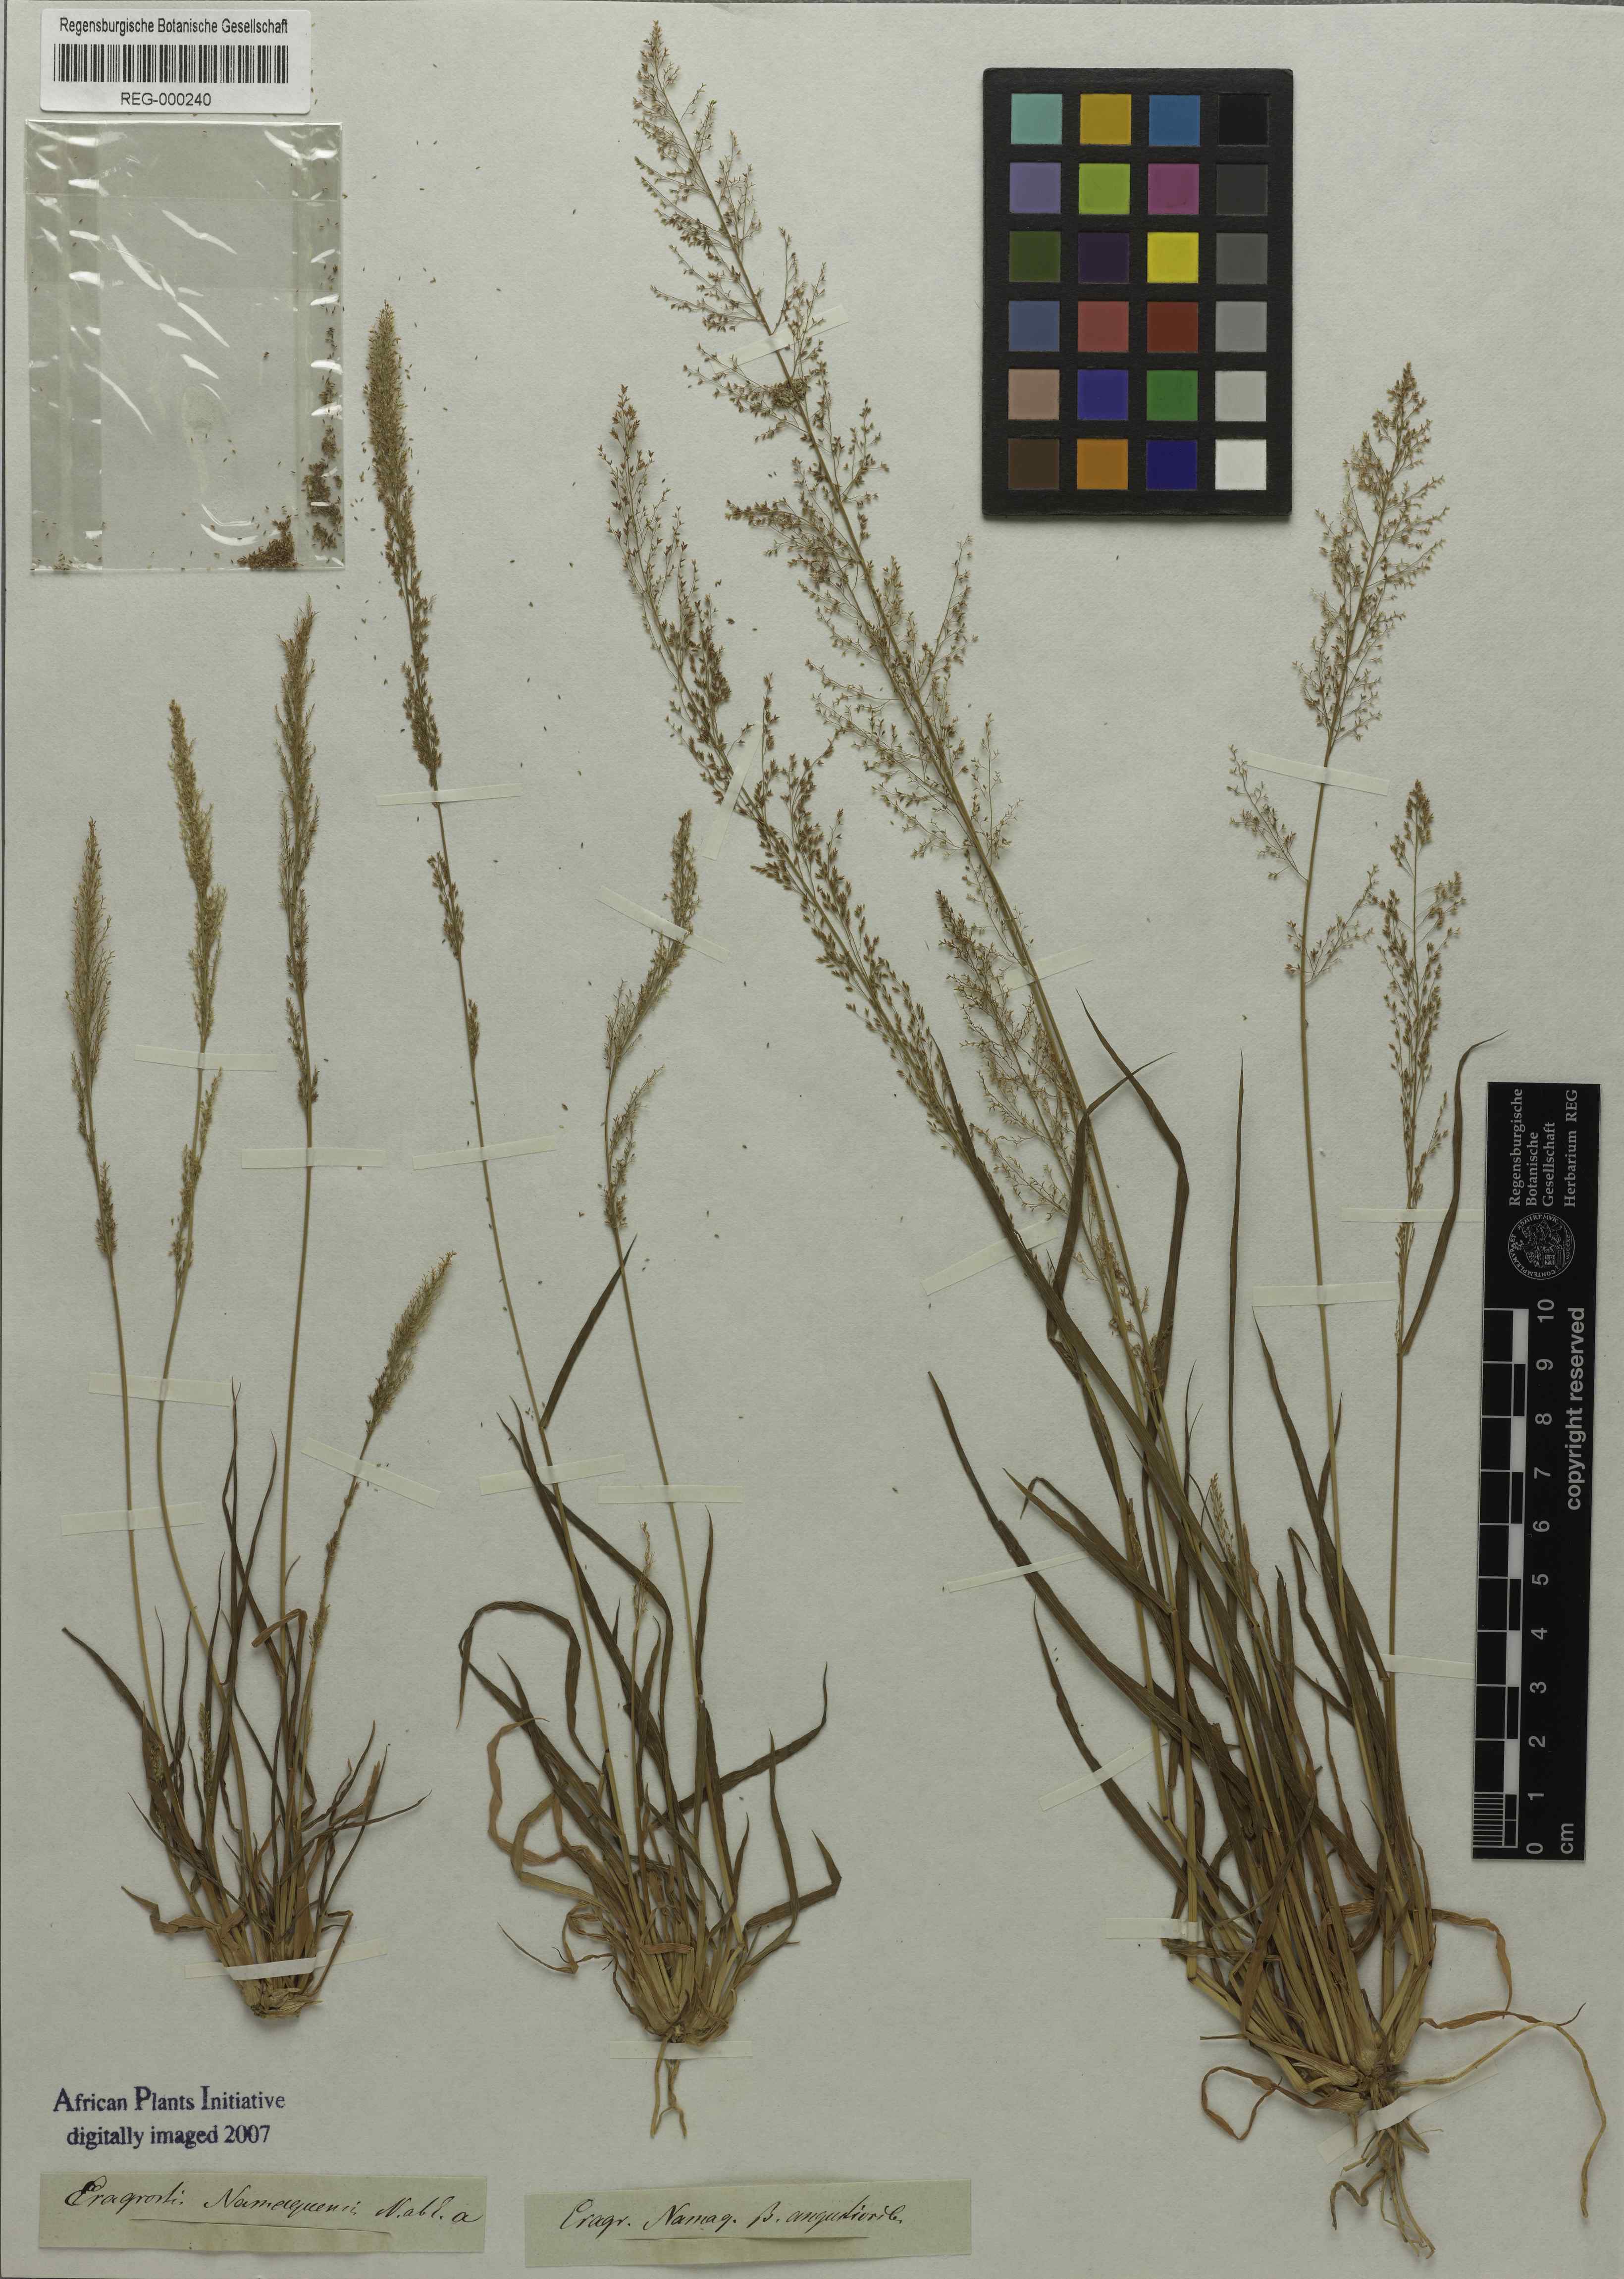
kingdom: Plantae
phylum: Tracheophyta
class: Liliopsida
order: Poales
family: Poaceae
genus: Eragrostis
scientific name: Eragrostis japonica
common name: Pond lovegrass
